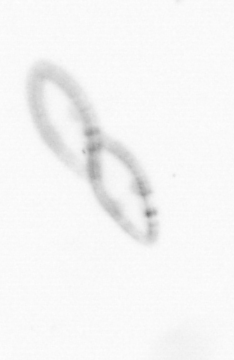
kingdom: Chromista
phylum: Ochrophyta
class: Bacillariophyceae
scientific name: Bacillariophyceae
